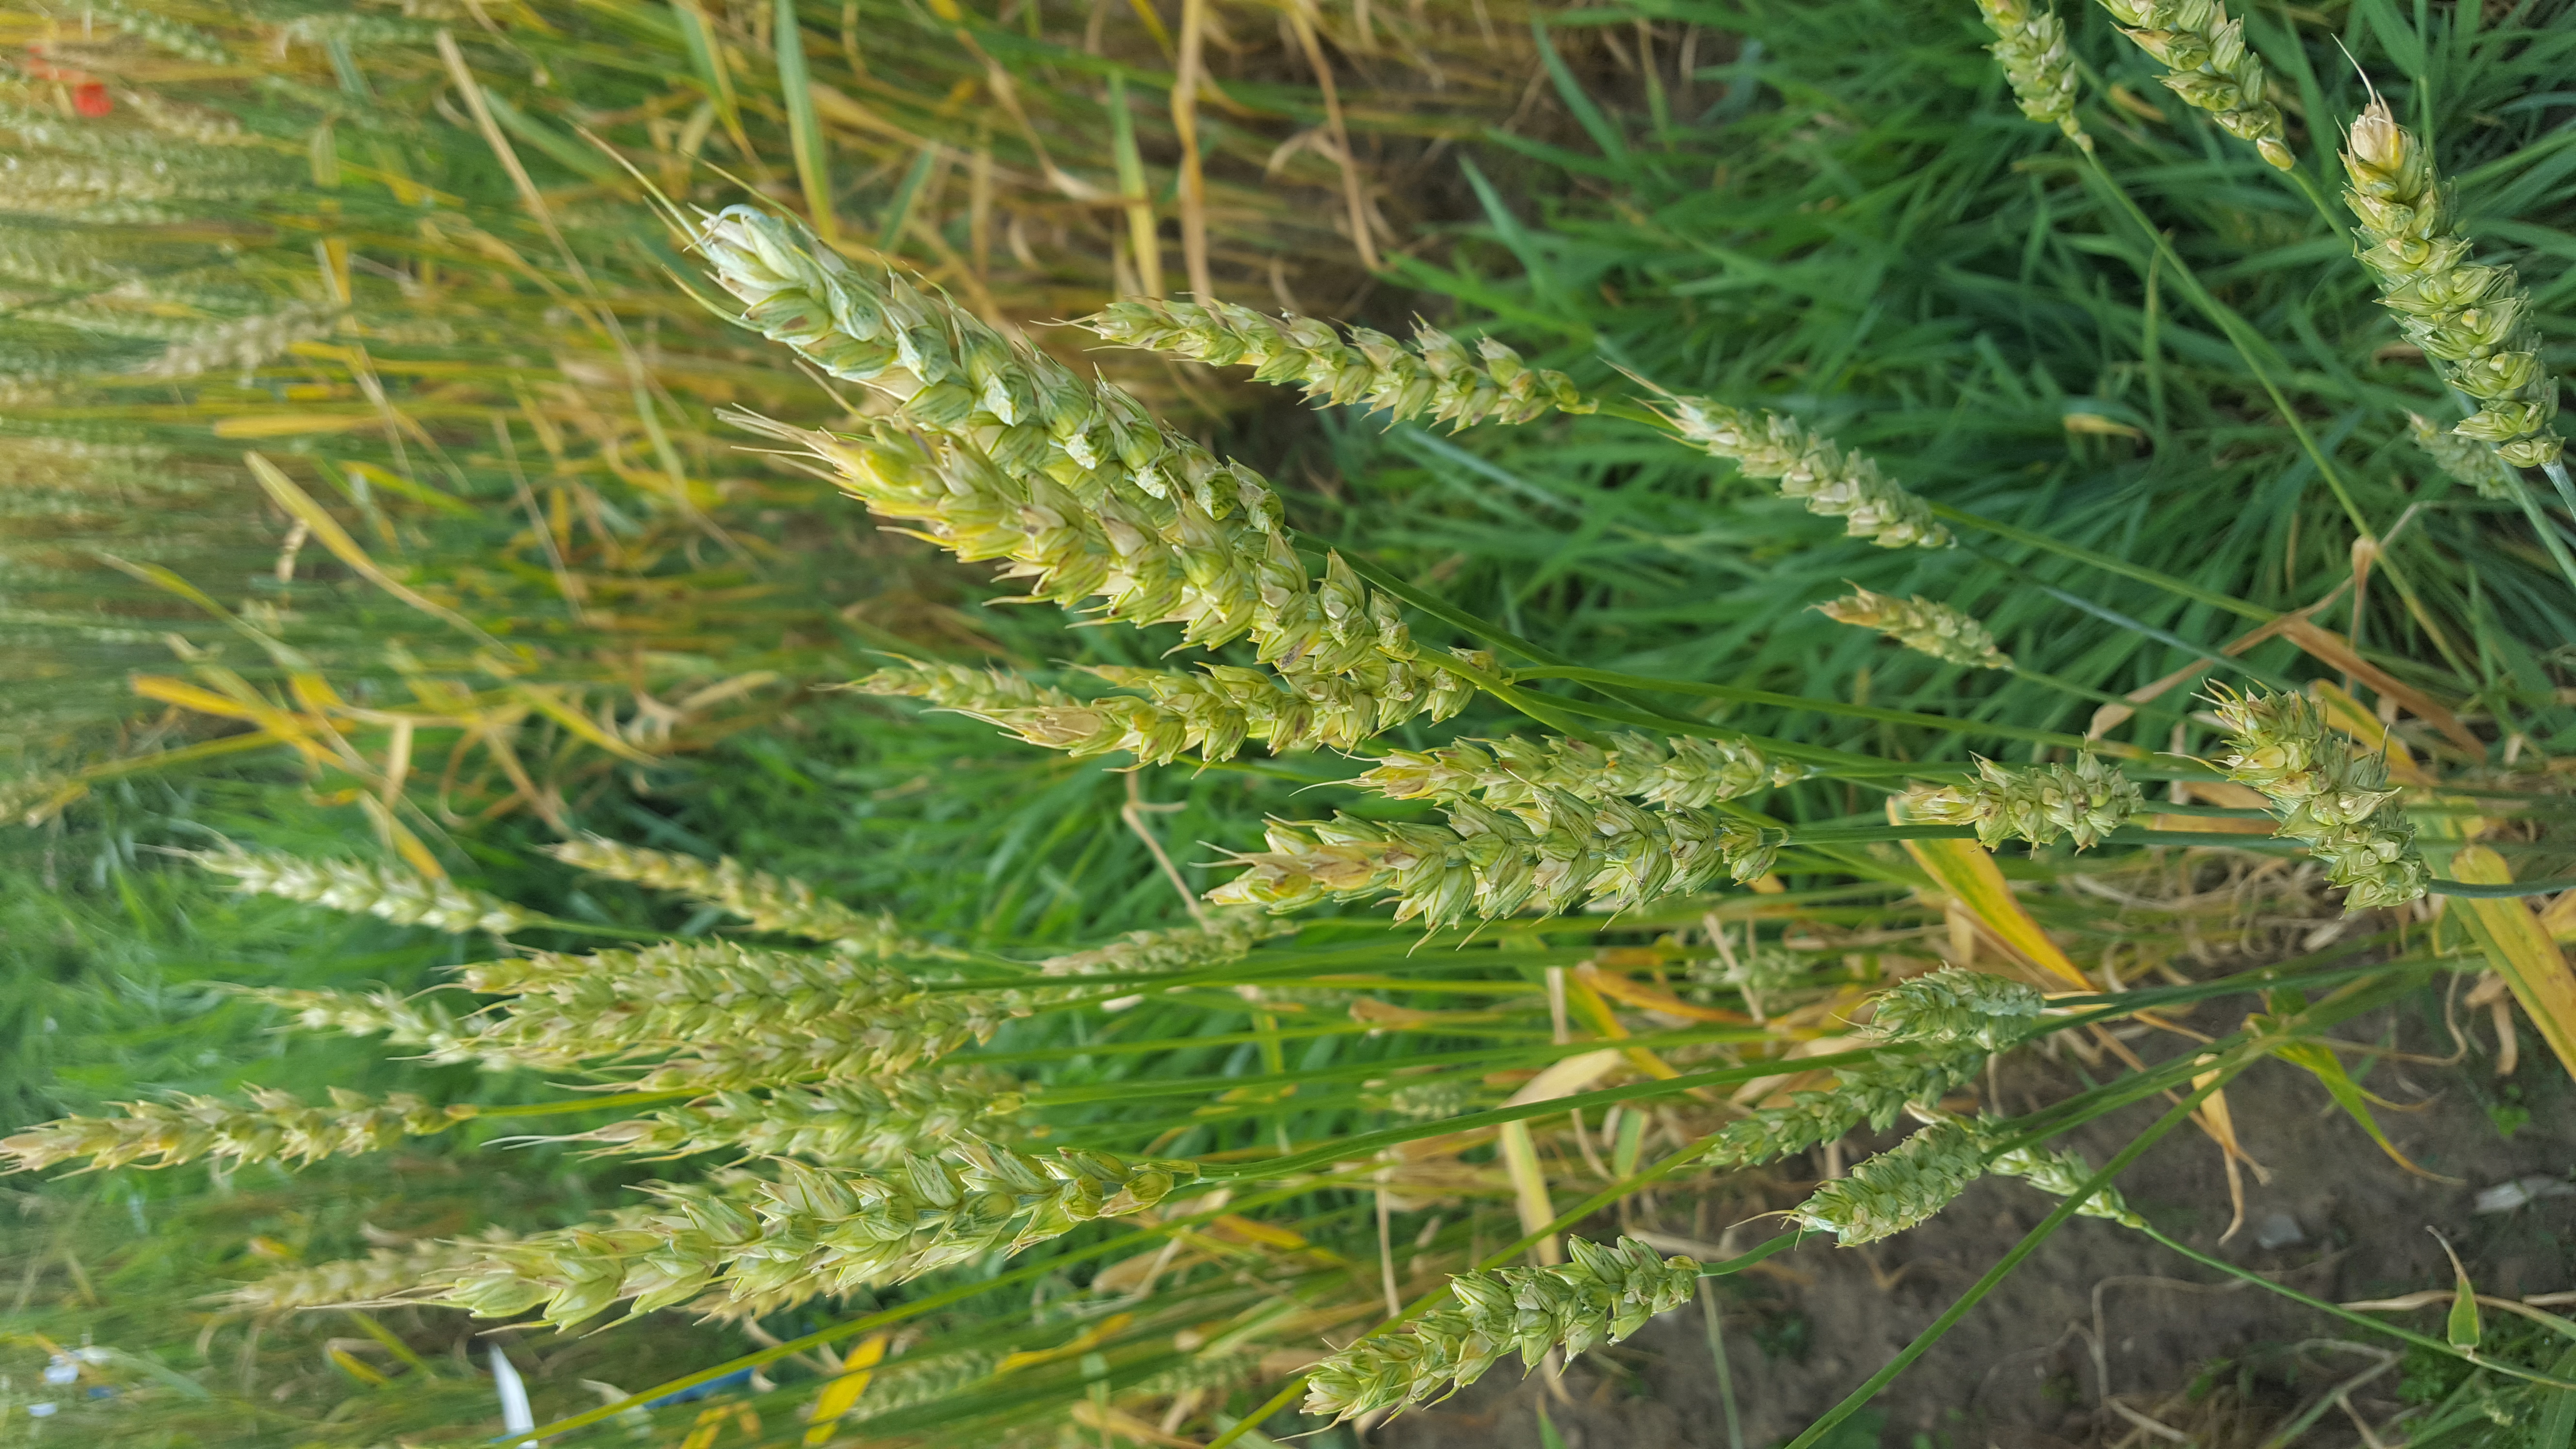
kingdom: Plantae
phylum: Tracheophyta
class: Liliopsida
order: Poales
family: Poaceae
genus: Triticum
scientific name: Triticum aestivum
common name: Common wheat
